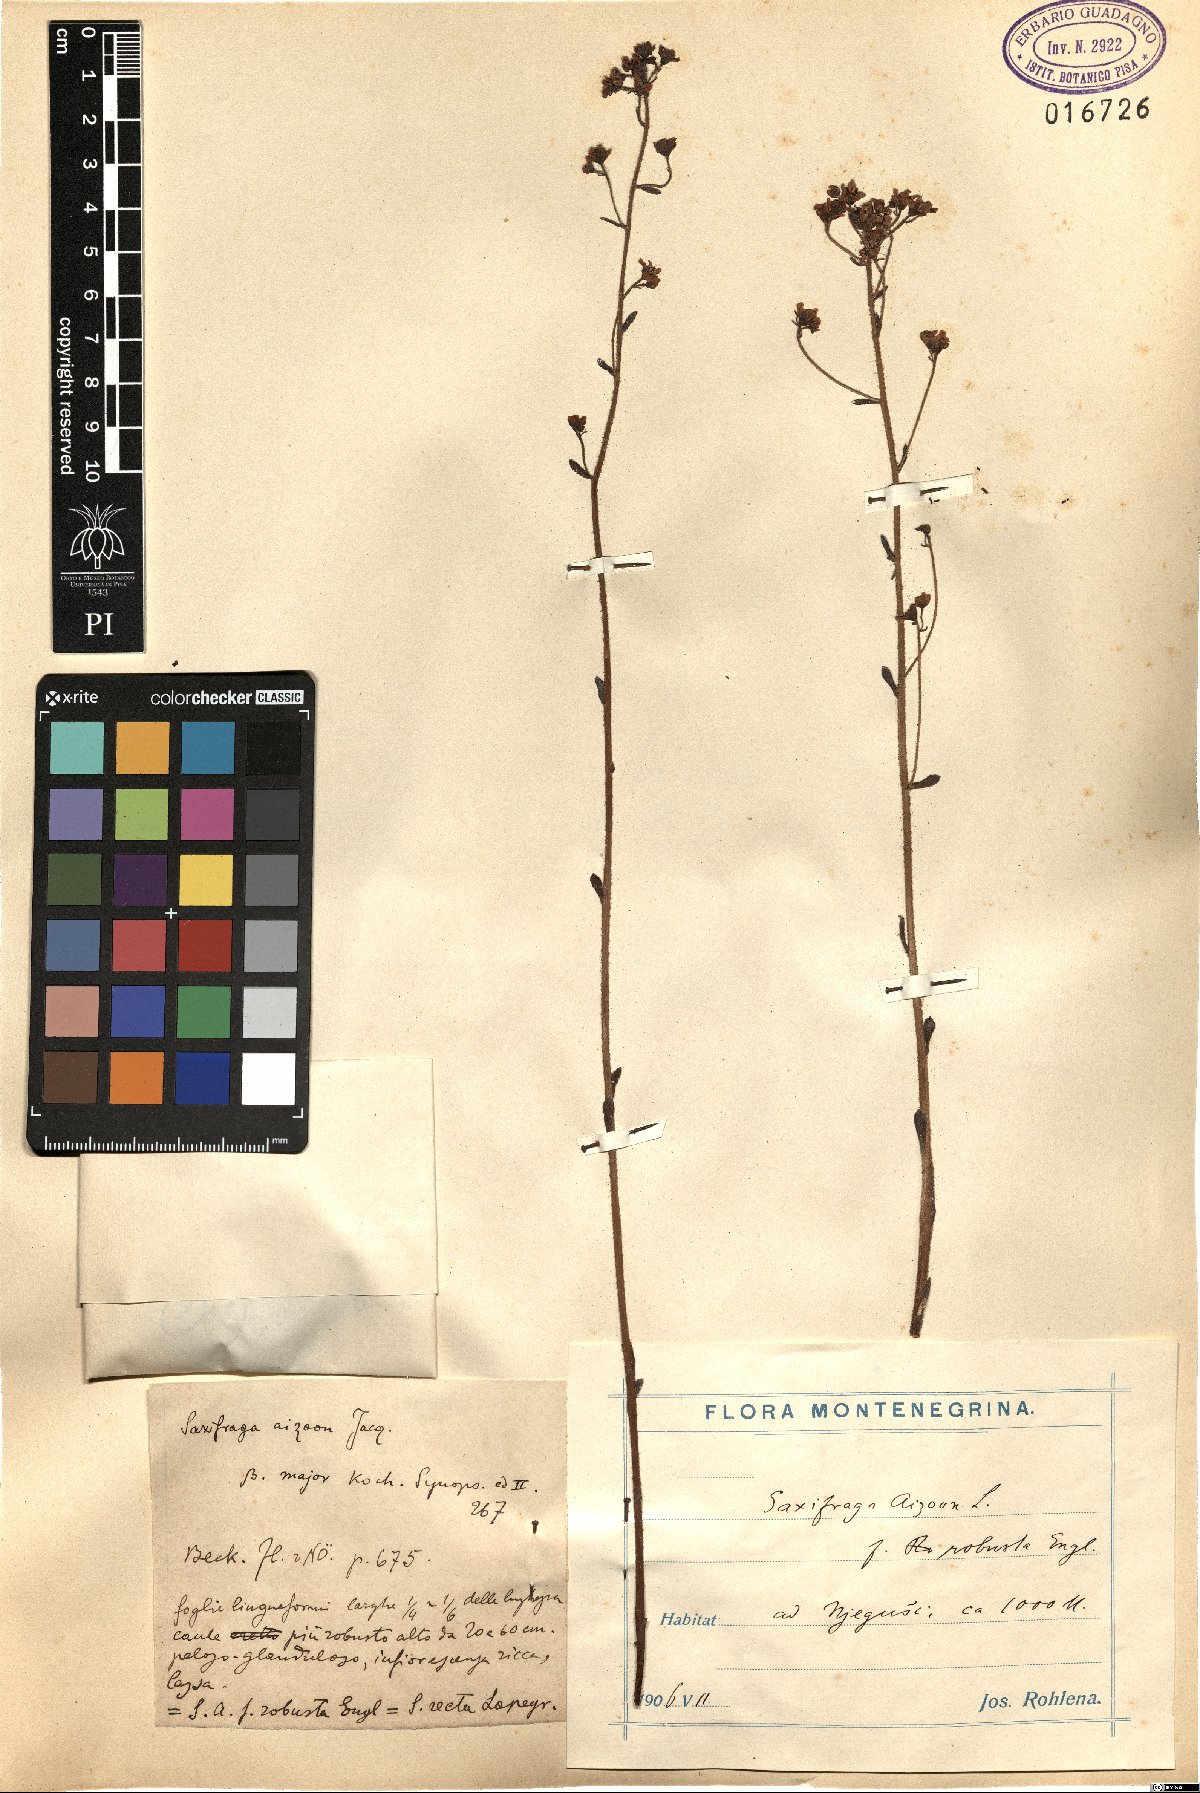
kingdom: Plantae
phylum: Tracheophyta
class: Magnoliopsida
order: Saxifragales
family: Saxifragaceae
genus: Saxifraga
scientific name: Saxifraga paniculata
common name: Livelong saxifrage
